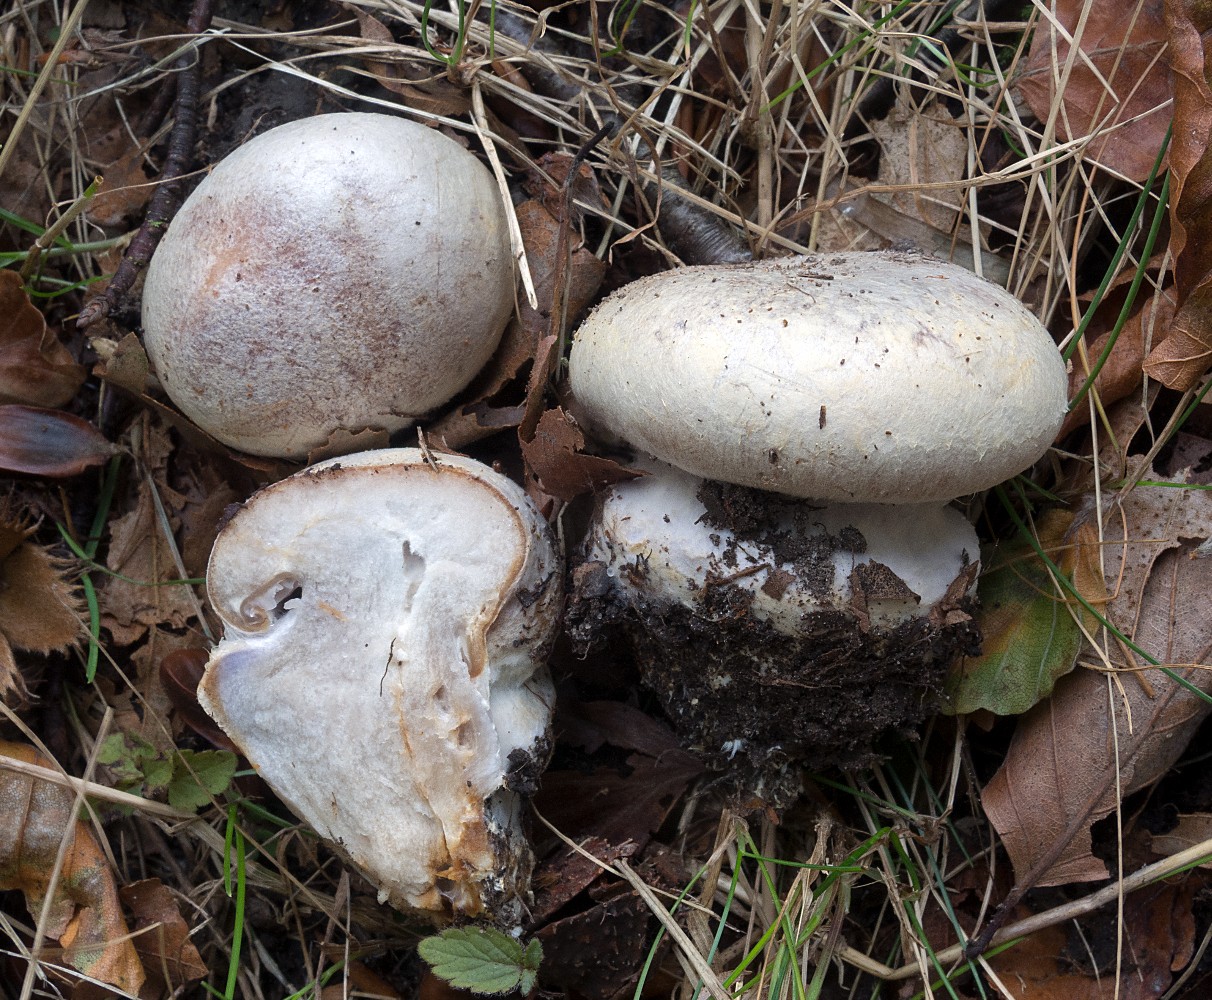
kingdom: Fungi
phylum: Basidiomycota
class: Agaricomycetes
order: Agaricales
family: Cortinariaceae
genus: Cortinarius
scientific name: Cortinarius foetens
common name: stribet slørhat
